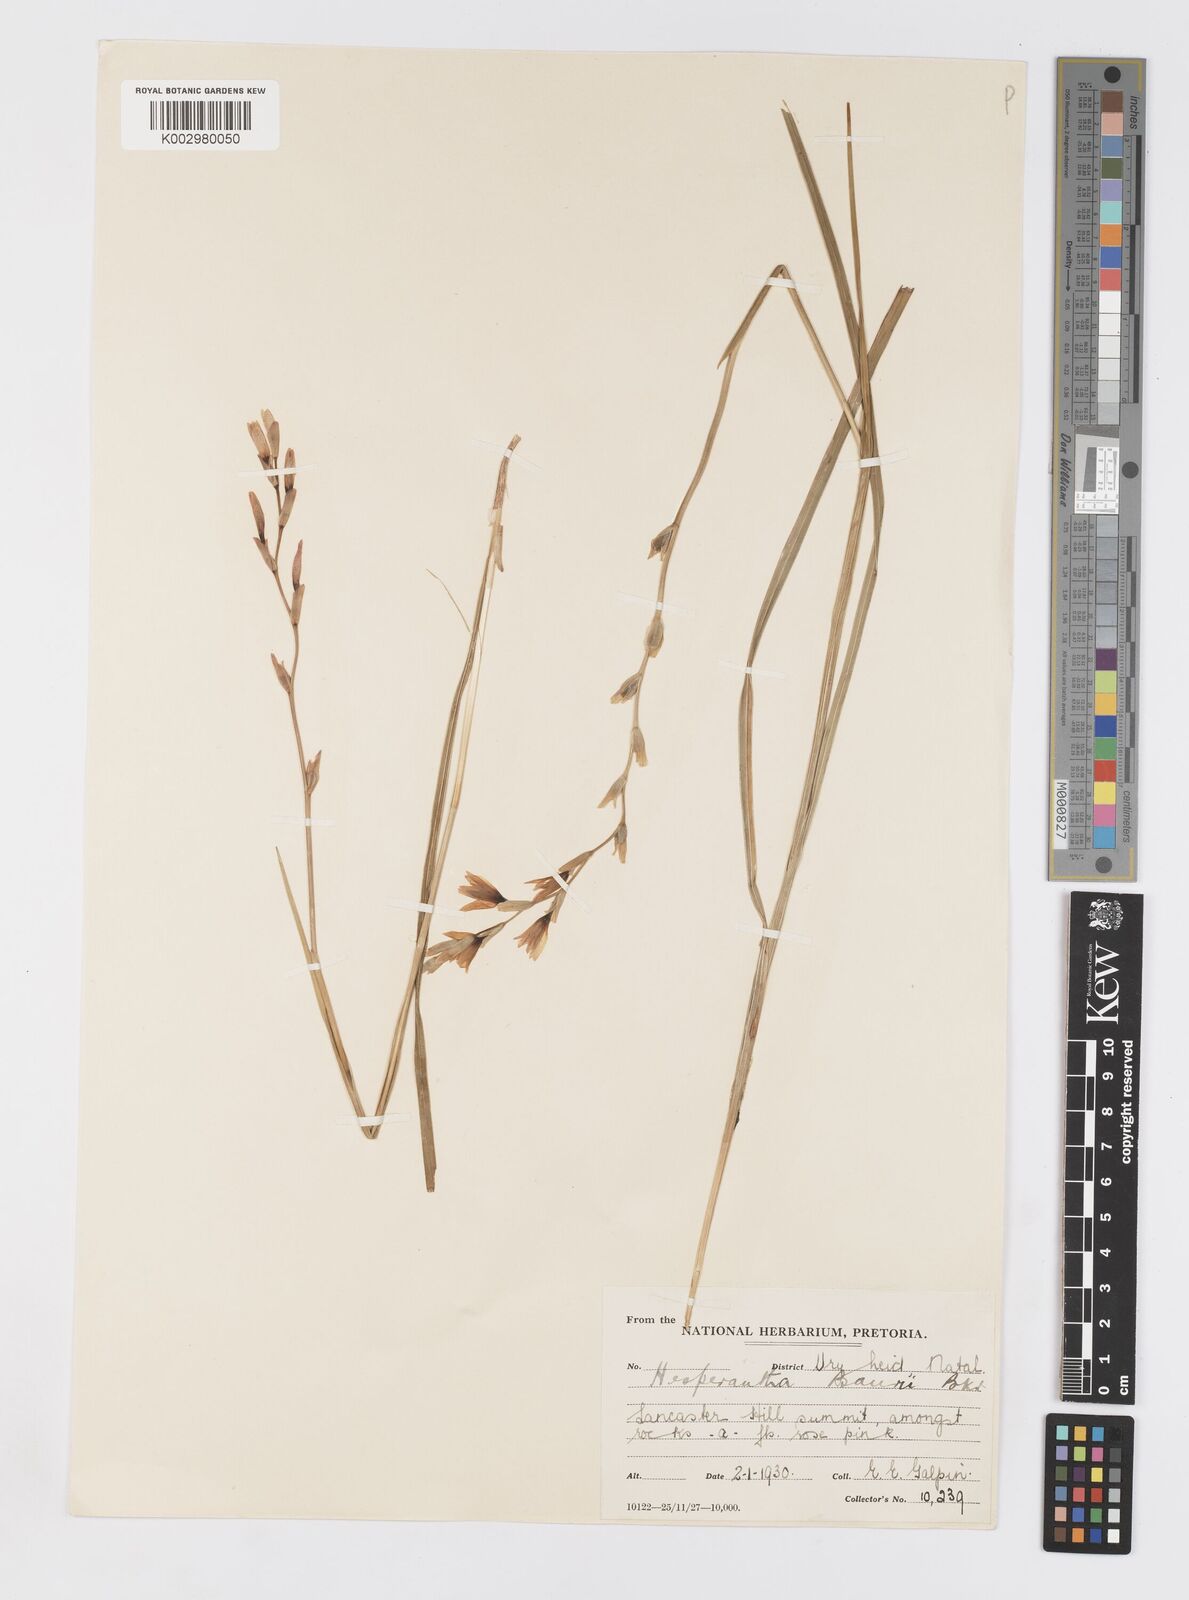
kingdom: Plantae
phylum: Tracheophyta
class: Liliopsida
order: Asparagales
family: Iridaceae
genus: Hesperantha
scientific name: Hesperantha baurii
